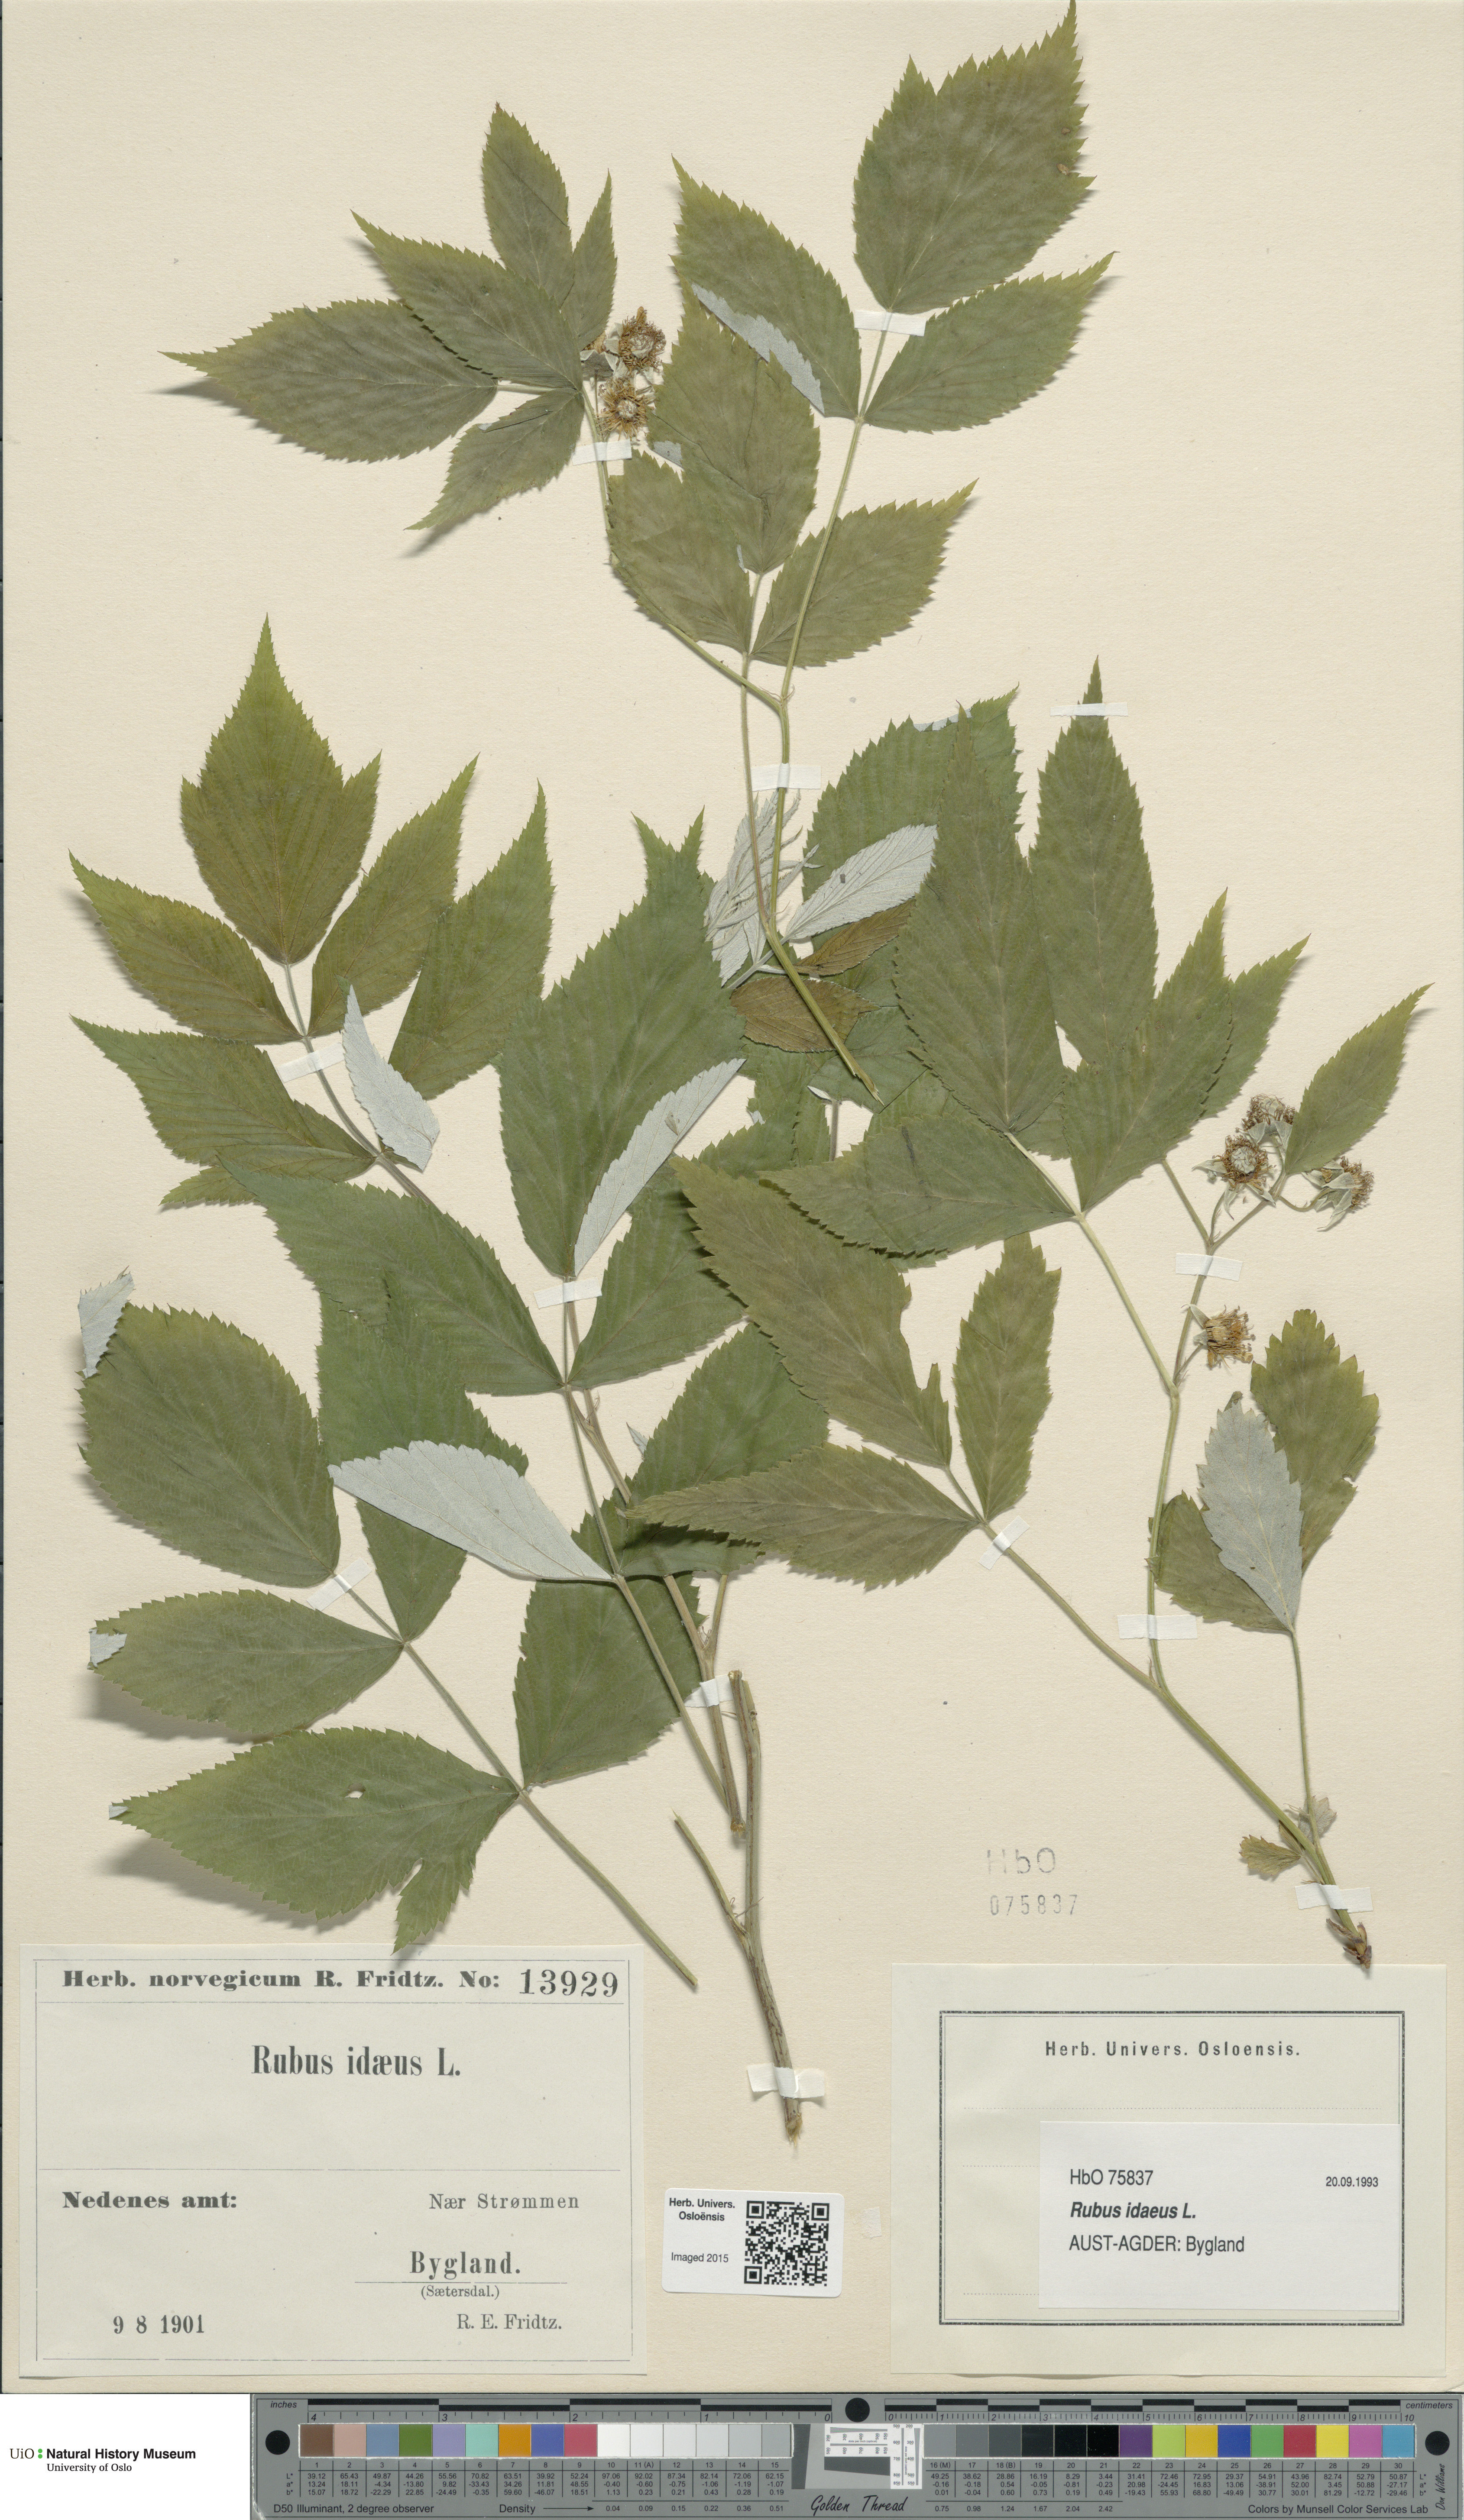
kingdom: Plantae
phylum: Tracheophyta
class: Magnoliopsida
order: Rosales
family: Rosaceae
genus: Rubus
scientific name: Rubus idaeus
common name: Raspberry
